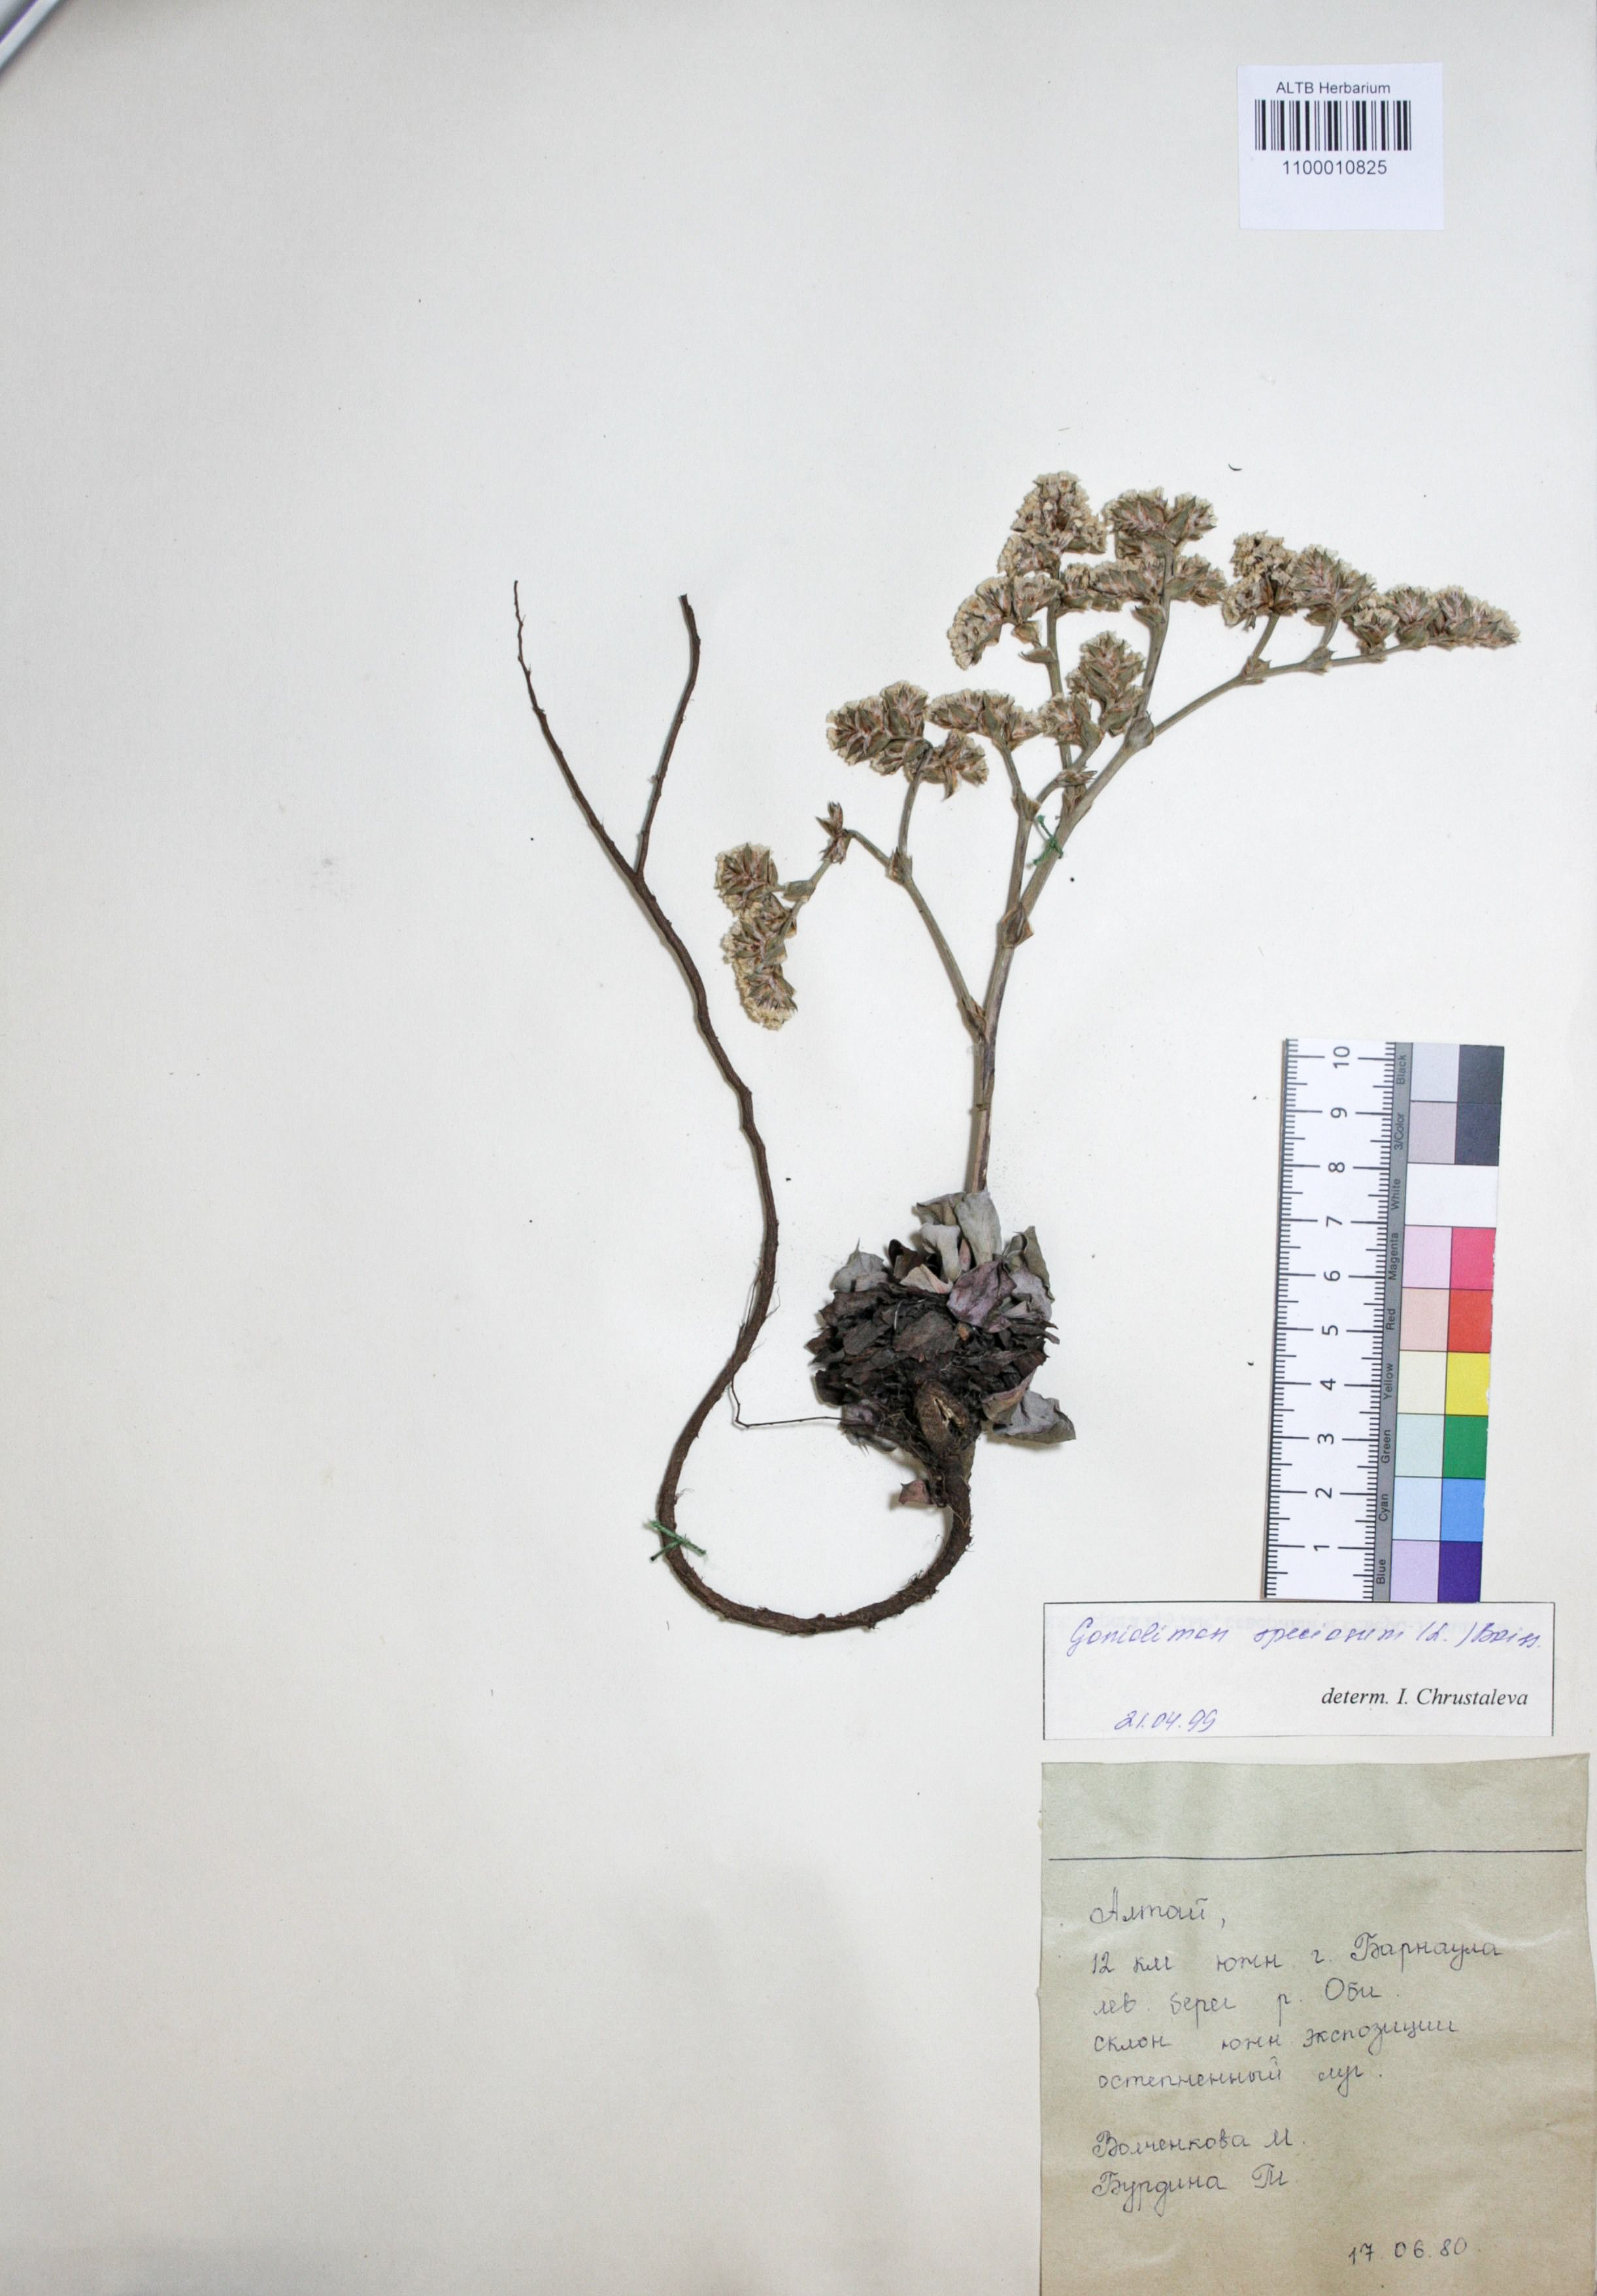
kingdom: Plantae
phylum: Tracheophyta
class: Magnoliopsida
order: Caryophyllales
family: Plumbaginaceae
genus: Goniolimon
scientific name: Goniolimon speciosum
